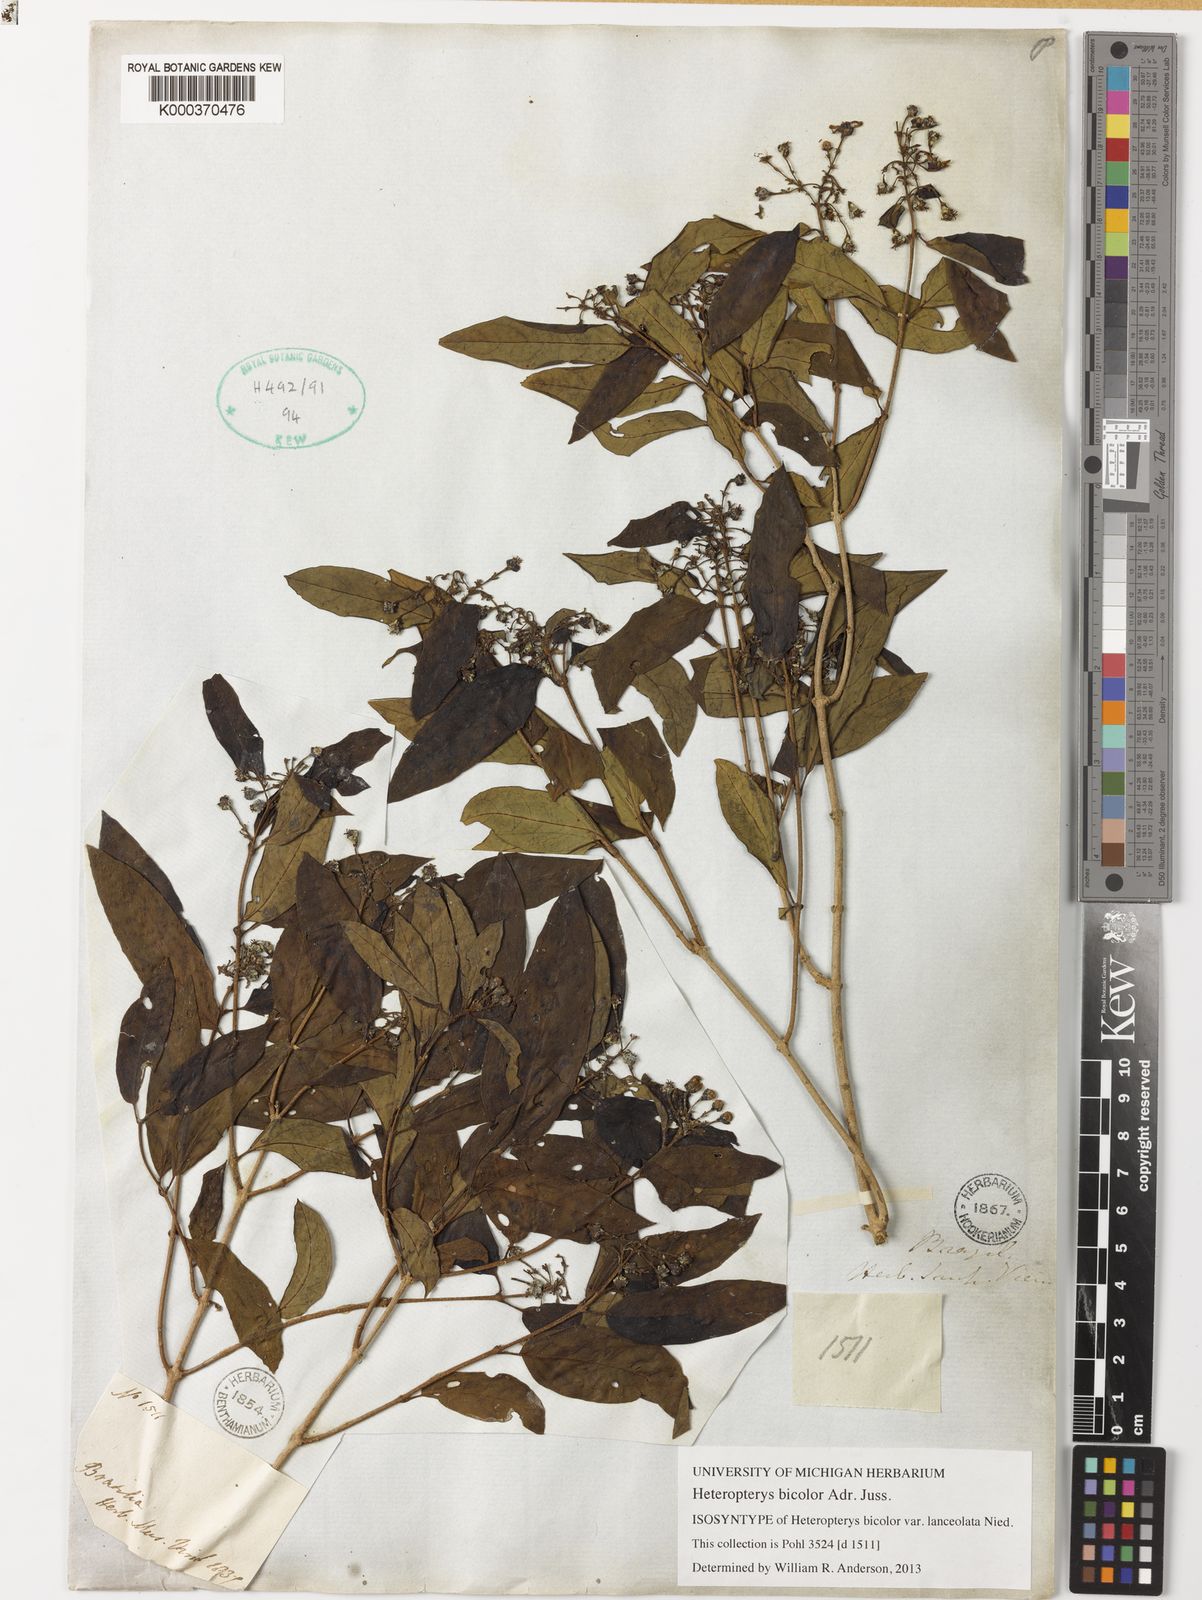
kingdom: Plantae
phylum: Tracheophyta
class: Magnoliopsida
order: Malpighiales
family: Malpighiaceae
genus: Heteropterys
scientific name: Heteropterys bicolor
